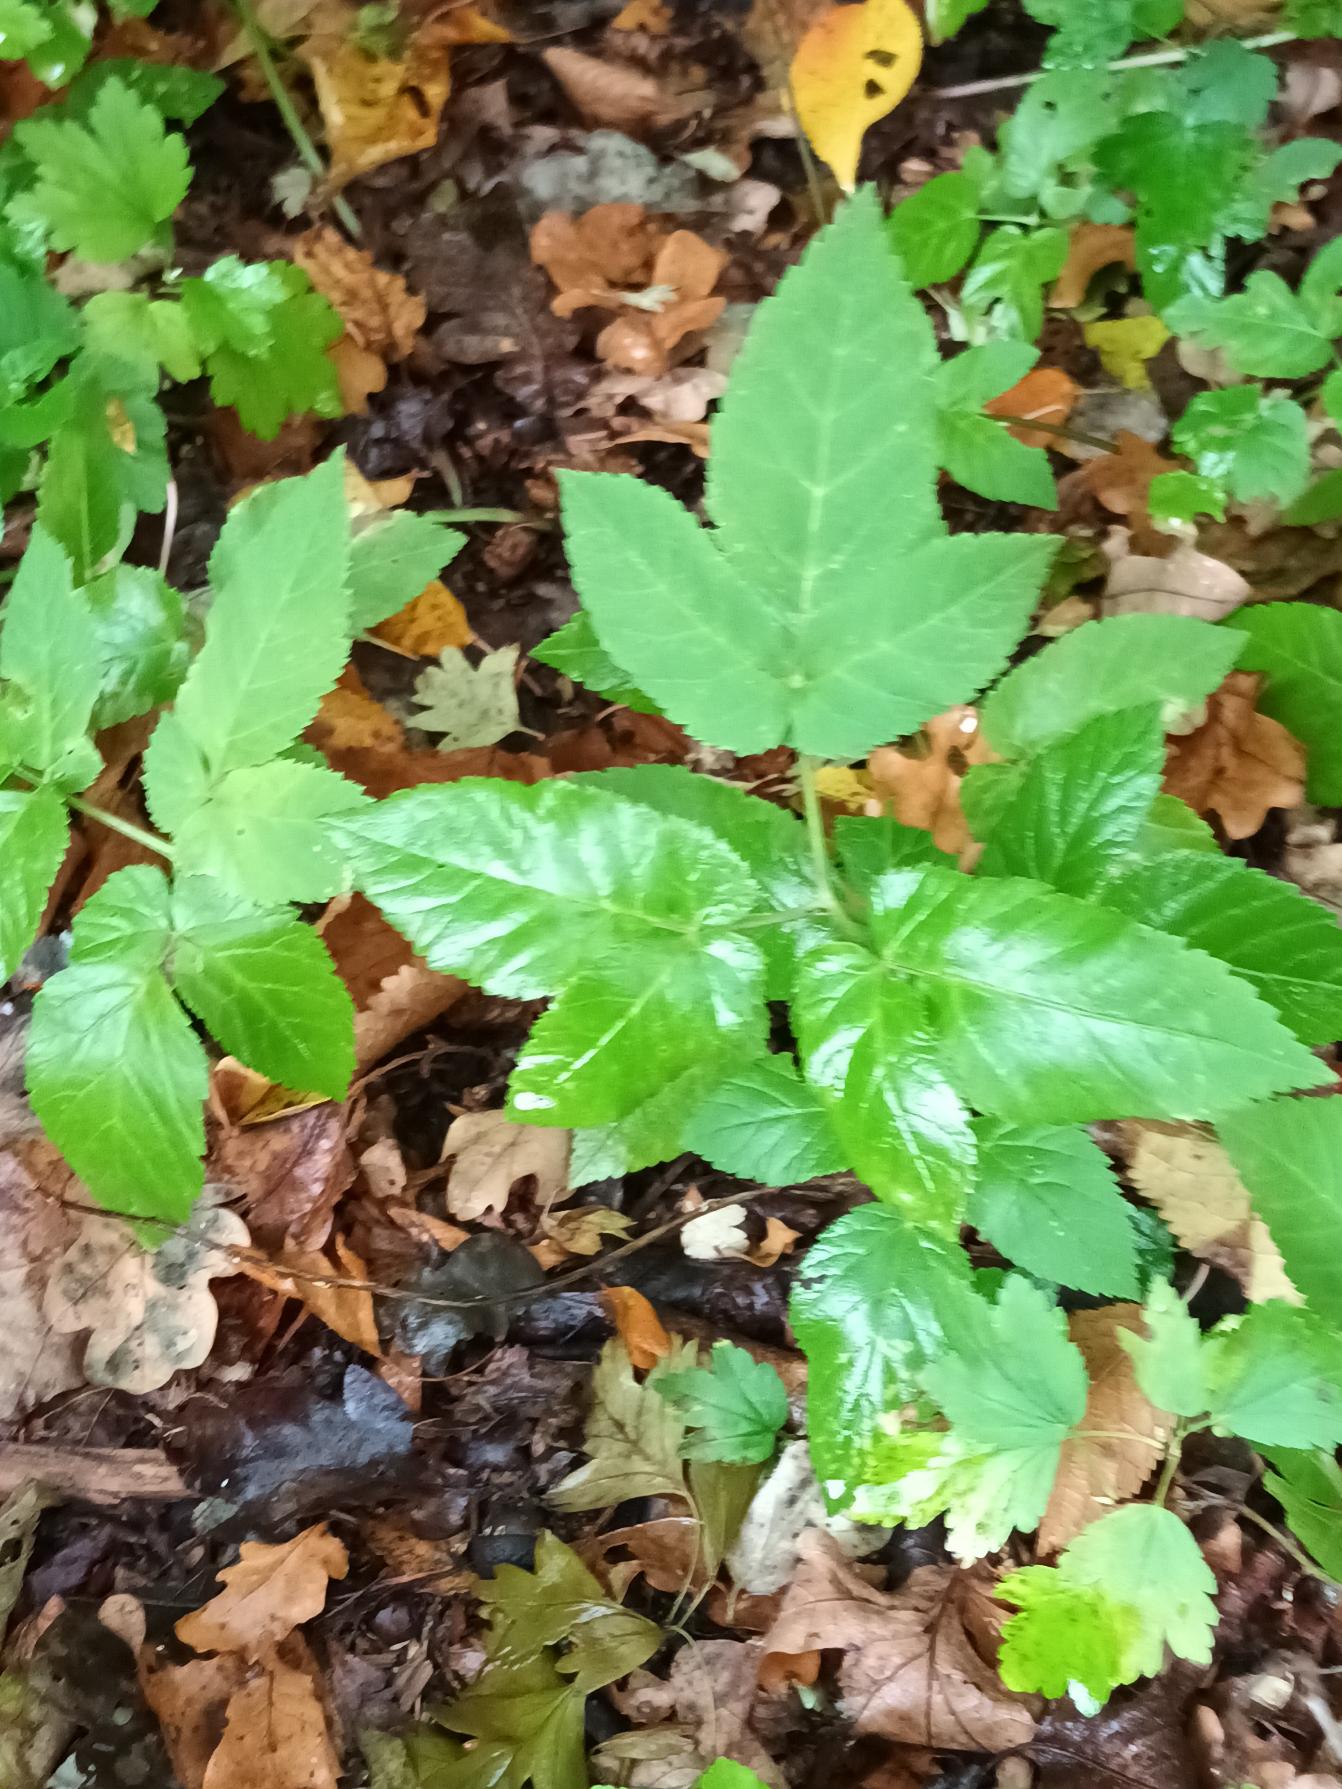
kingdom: Plantae
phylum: Tracheophyta
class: Magnoliopsida
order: Apiales
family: Apiaceae
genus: Aegopodium
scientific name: Aegopodium podagraria
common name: Skvalderkål
